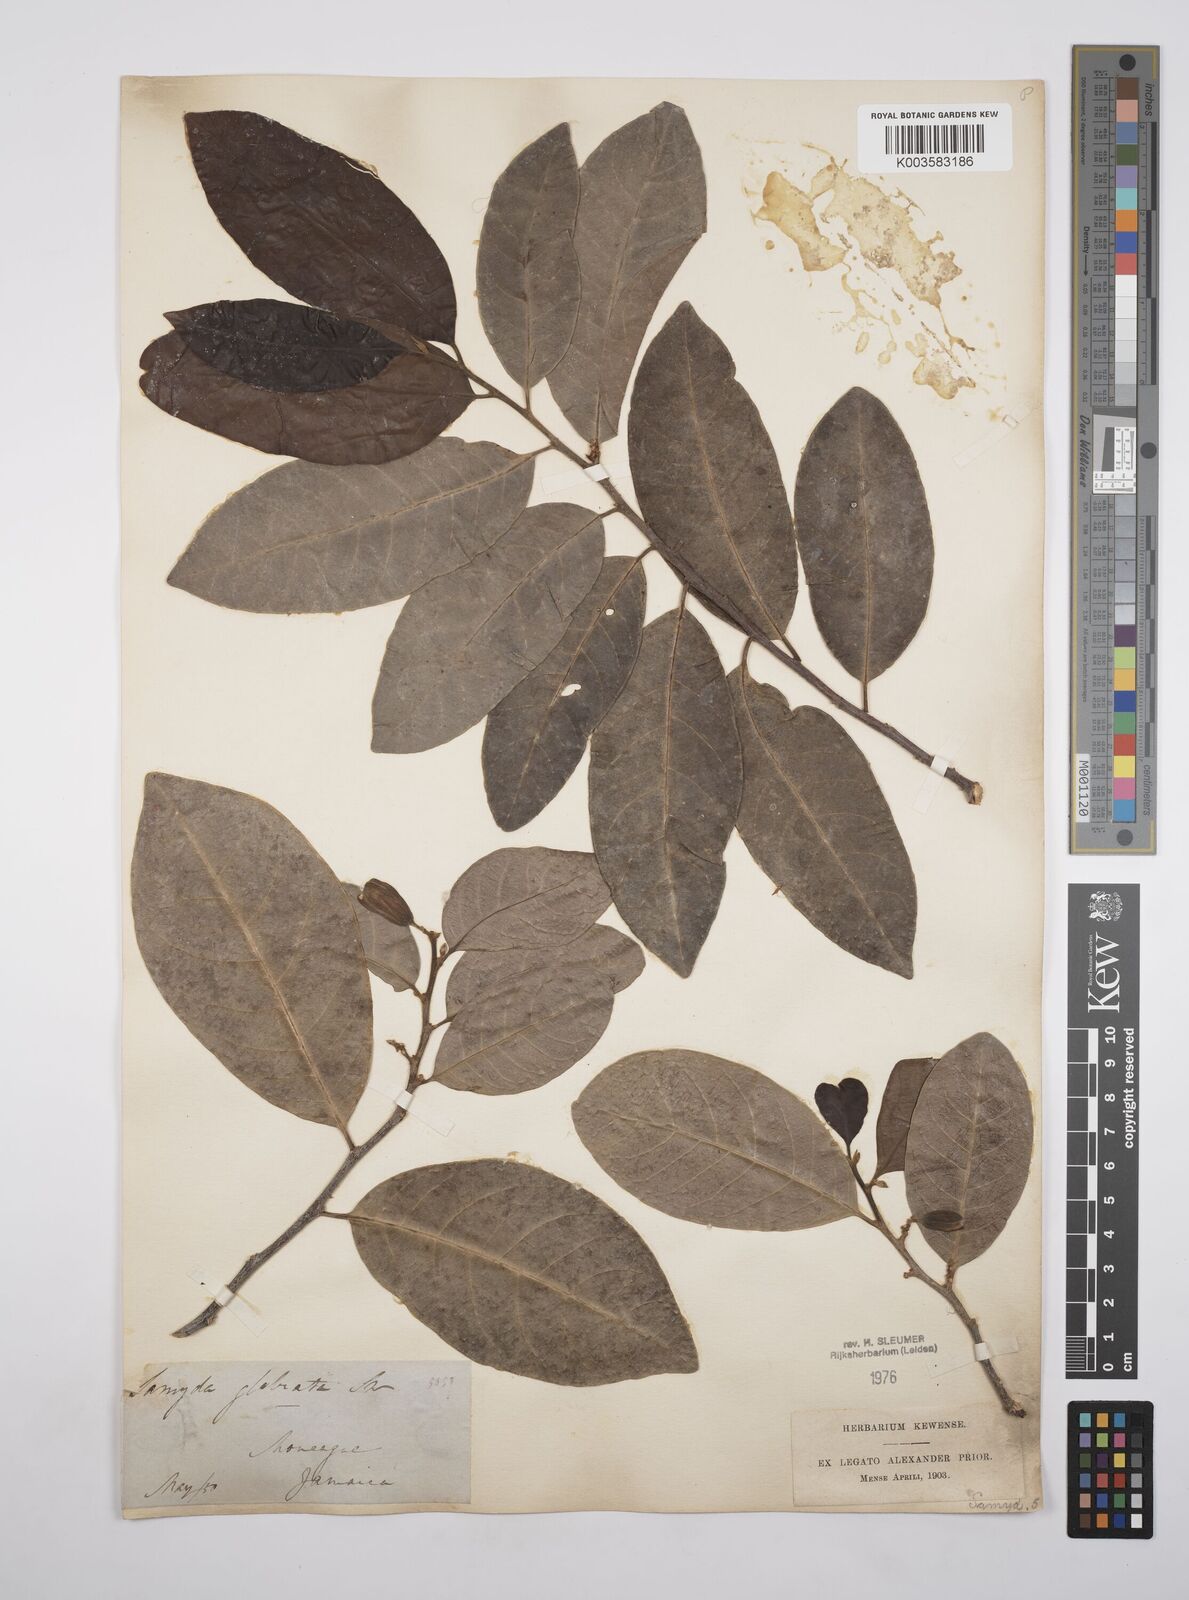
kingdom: Plantae
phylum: Tracheophyta
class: Magnoliopsida
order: Malpighiales
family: Salicaceae
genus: Casearia
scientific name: Casearia kigeri
